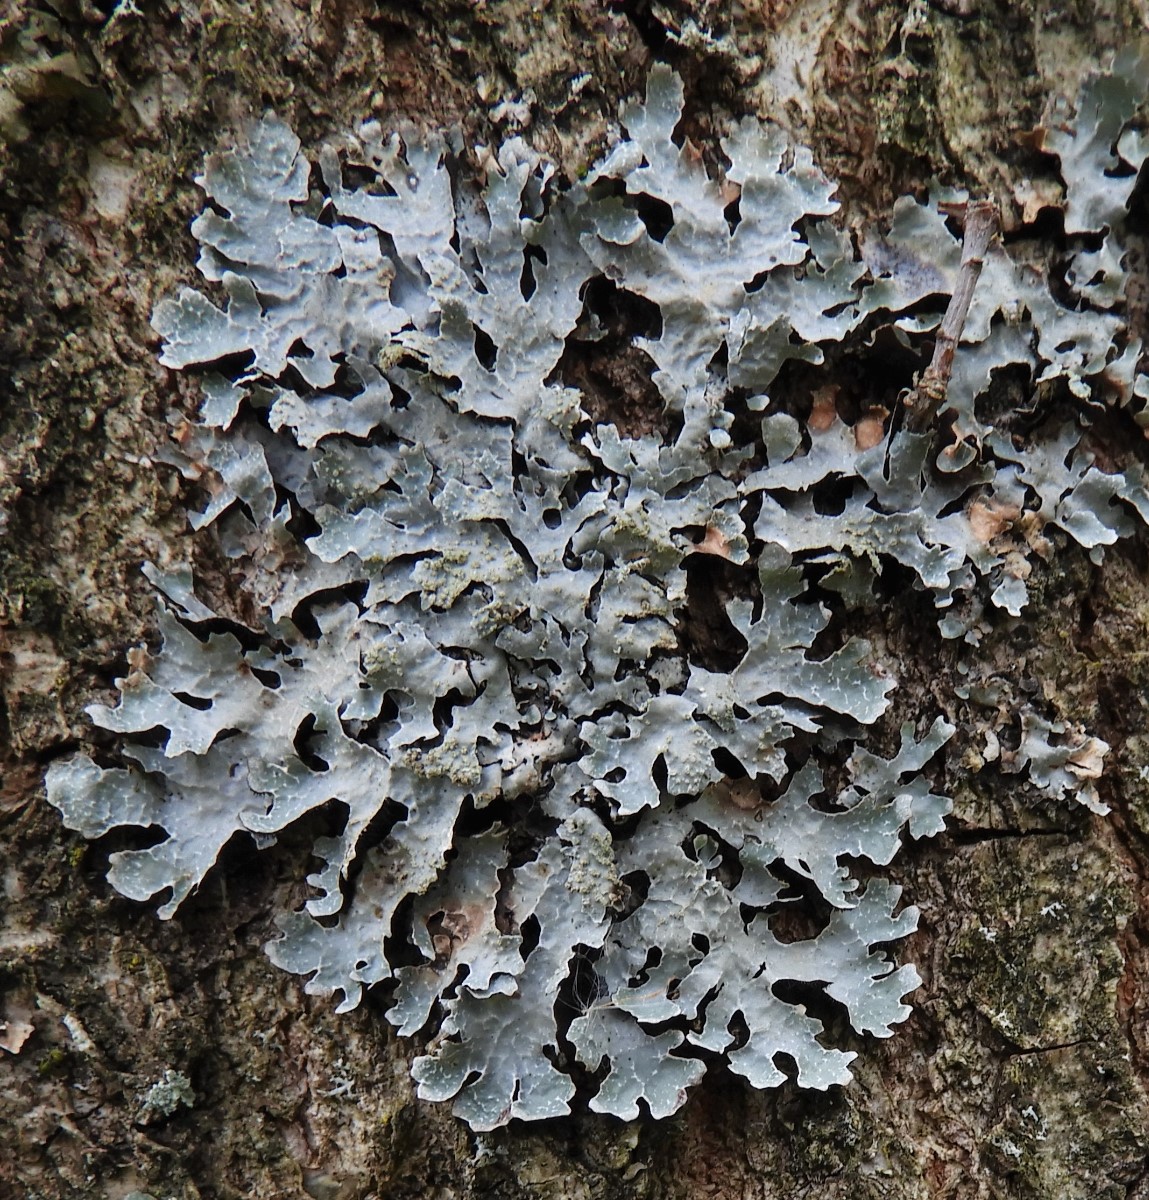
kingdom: Fungi
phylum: Ascomycota
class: Lecanoromycetes
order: Lecanorales
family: Parmeliaceae
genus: Parmelia
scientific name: Parmelia sulcata
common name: rynket skållav
